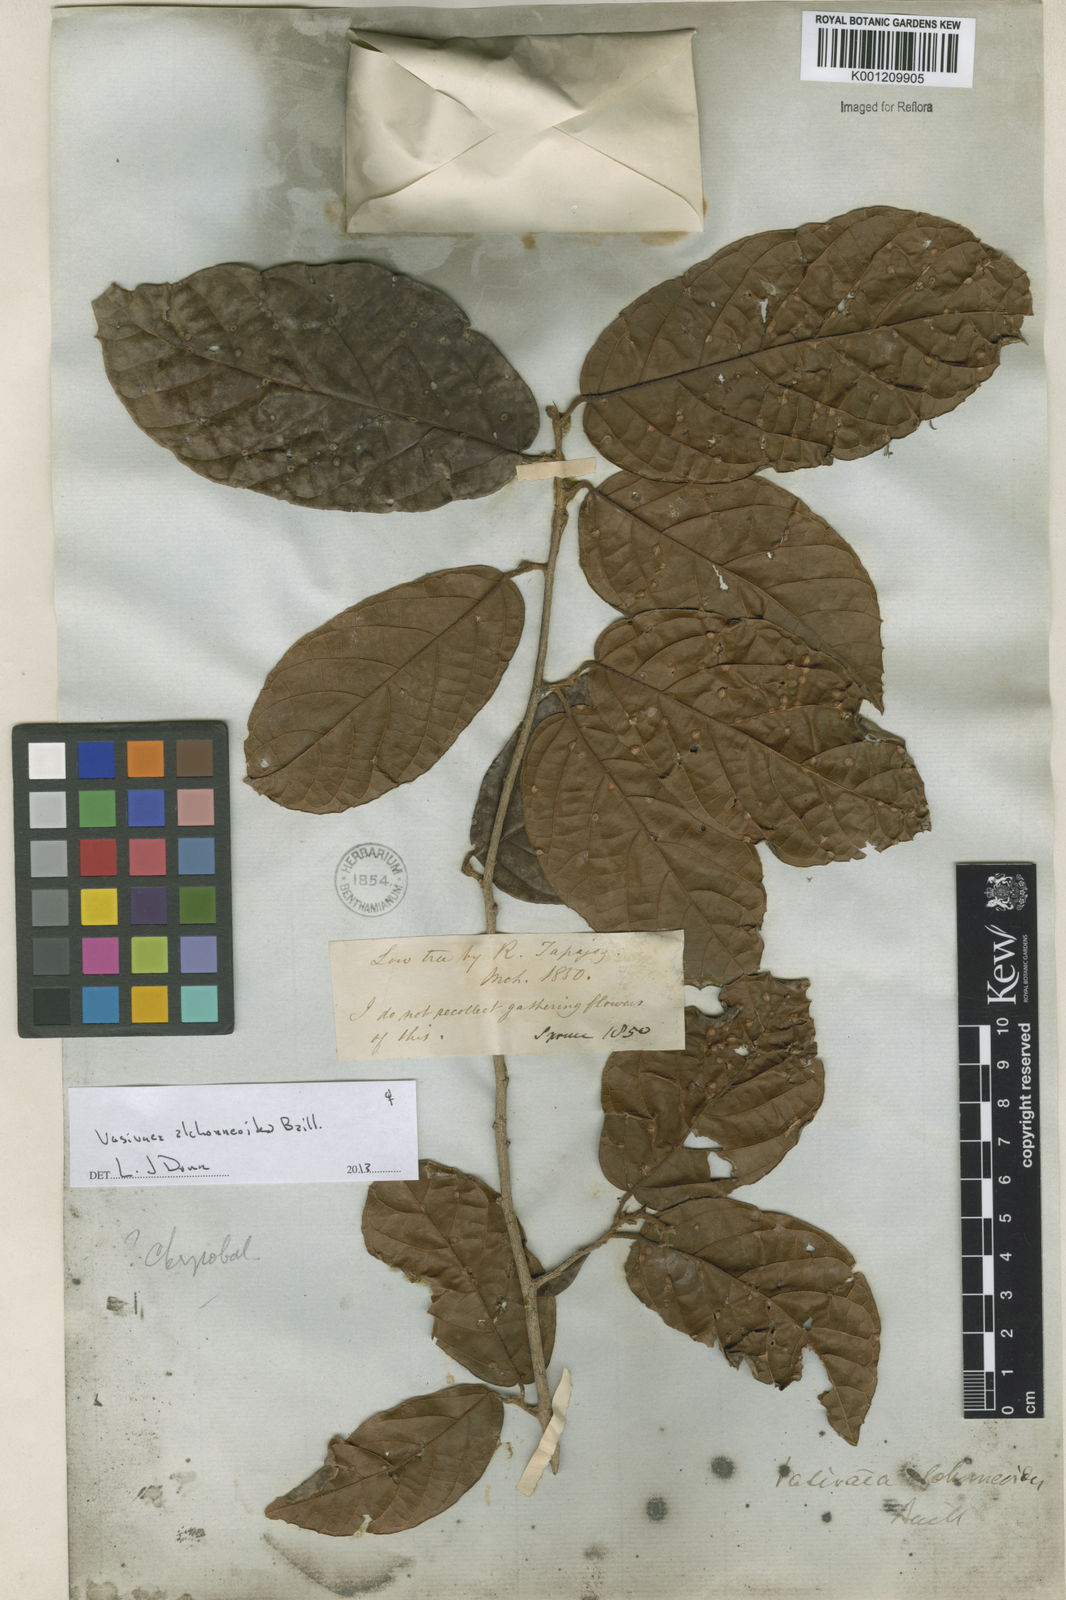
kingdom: Plantae
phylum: Tracheophyta
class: Magnoliopsida
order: Malvales
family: Malvaceae
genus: Vasivaea
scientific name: Vasivaea alchorneoides
